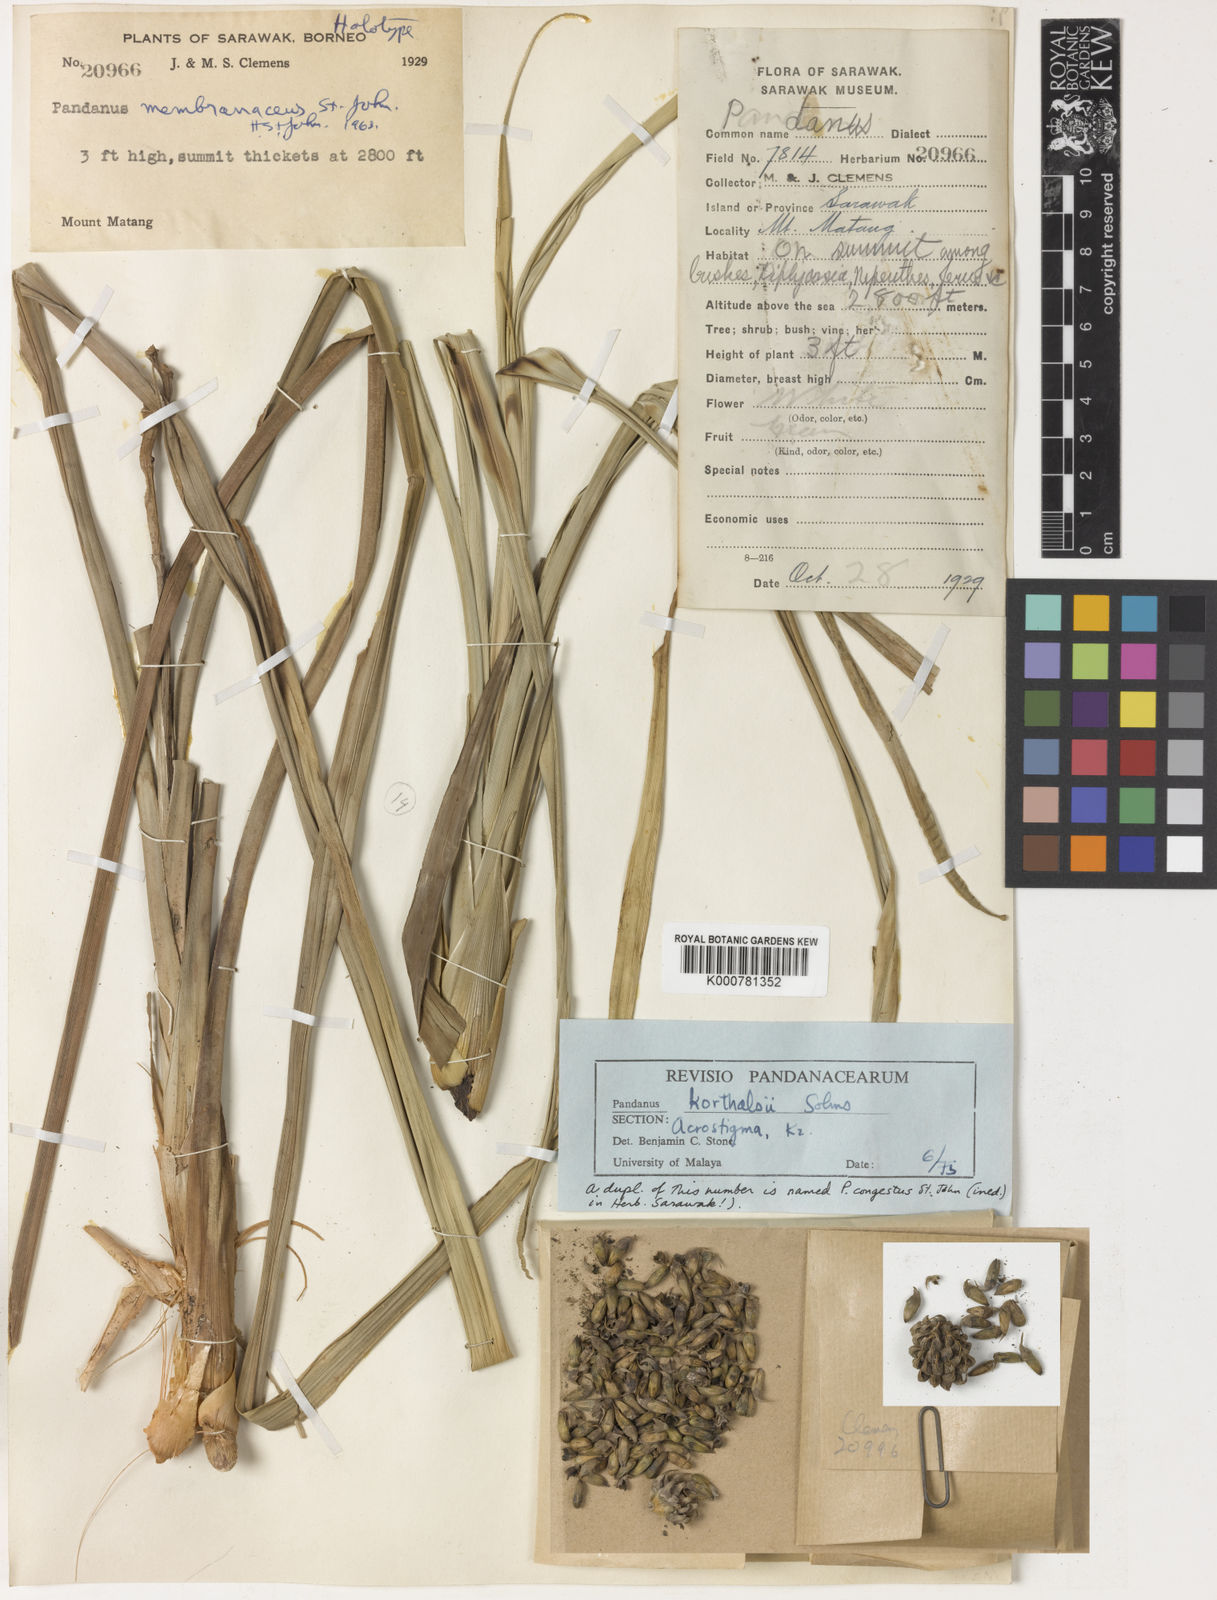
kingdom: Plantae
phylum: Tracheophyta
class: Liliopsida
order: Pandanales
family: Pandanaceae
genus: Benstonea
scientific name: Benstonea korthalsii
